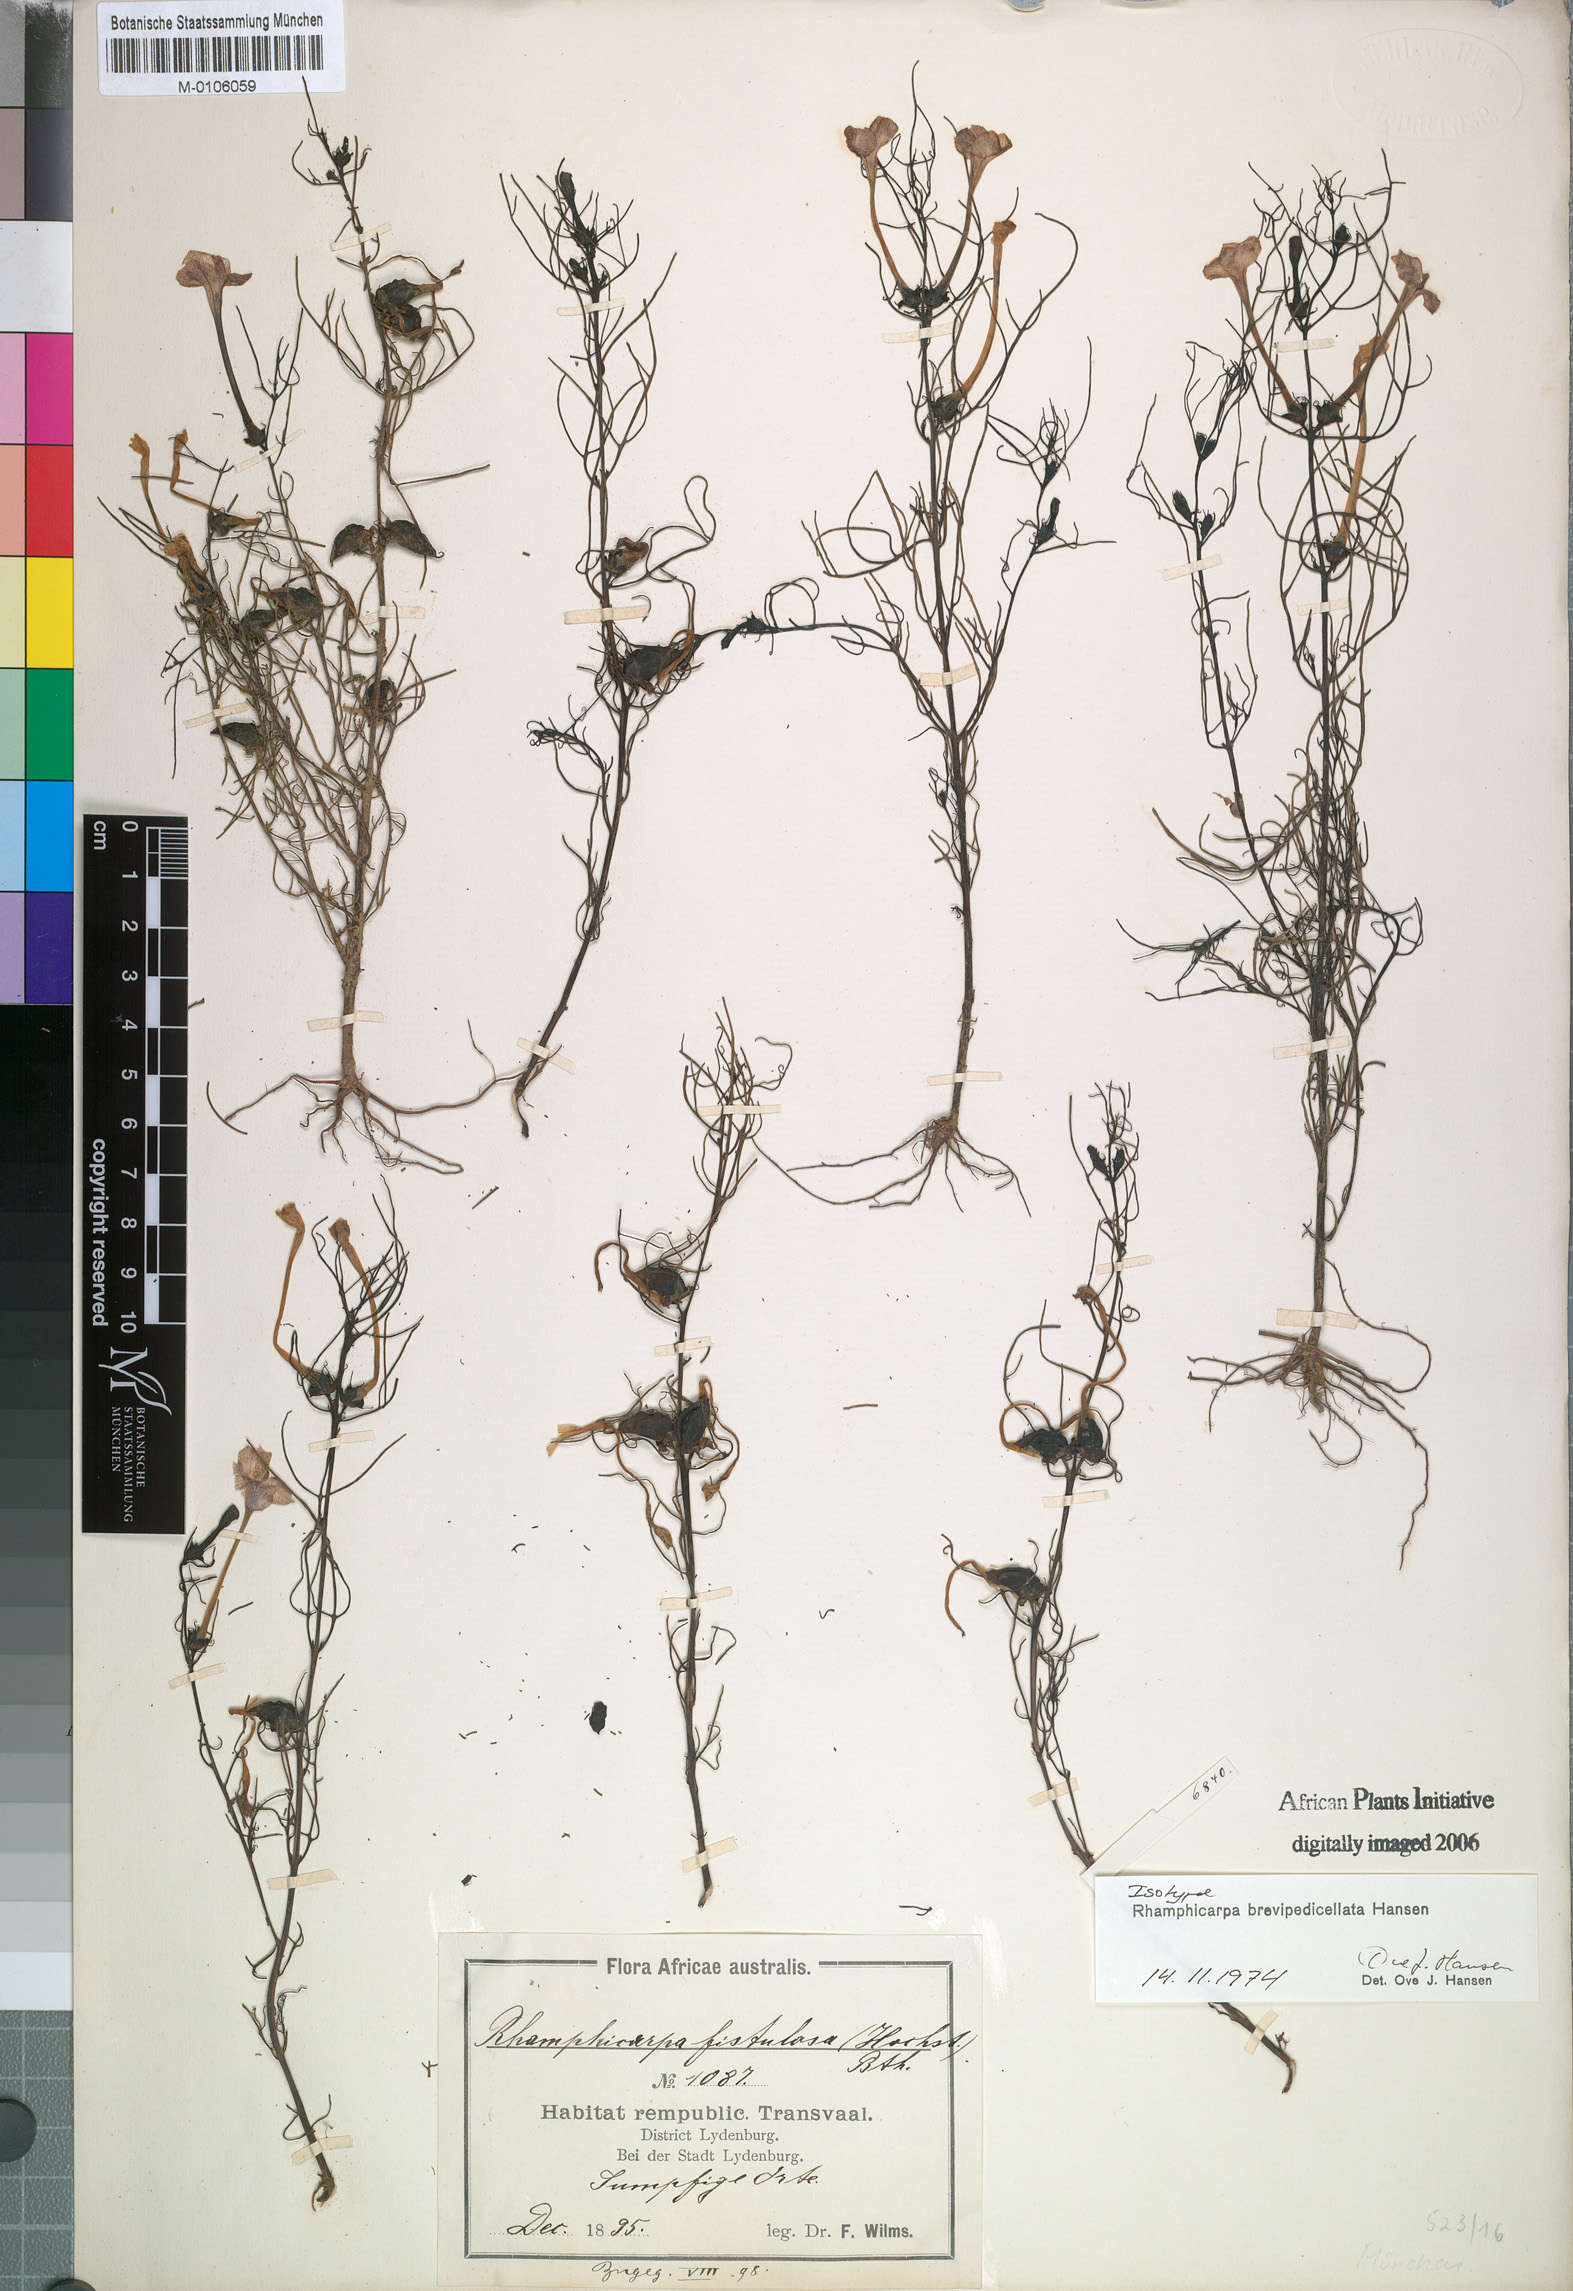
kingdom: Plantae
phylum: Tracheophyta
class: Magnoliopsida
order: Lamiales
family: Orobanchaceae
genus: Rhamphicarpa
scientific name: Rhamphicarpa brevipedicellata
